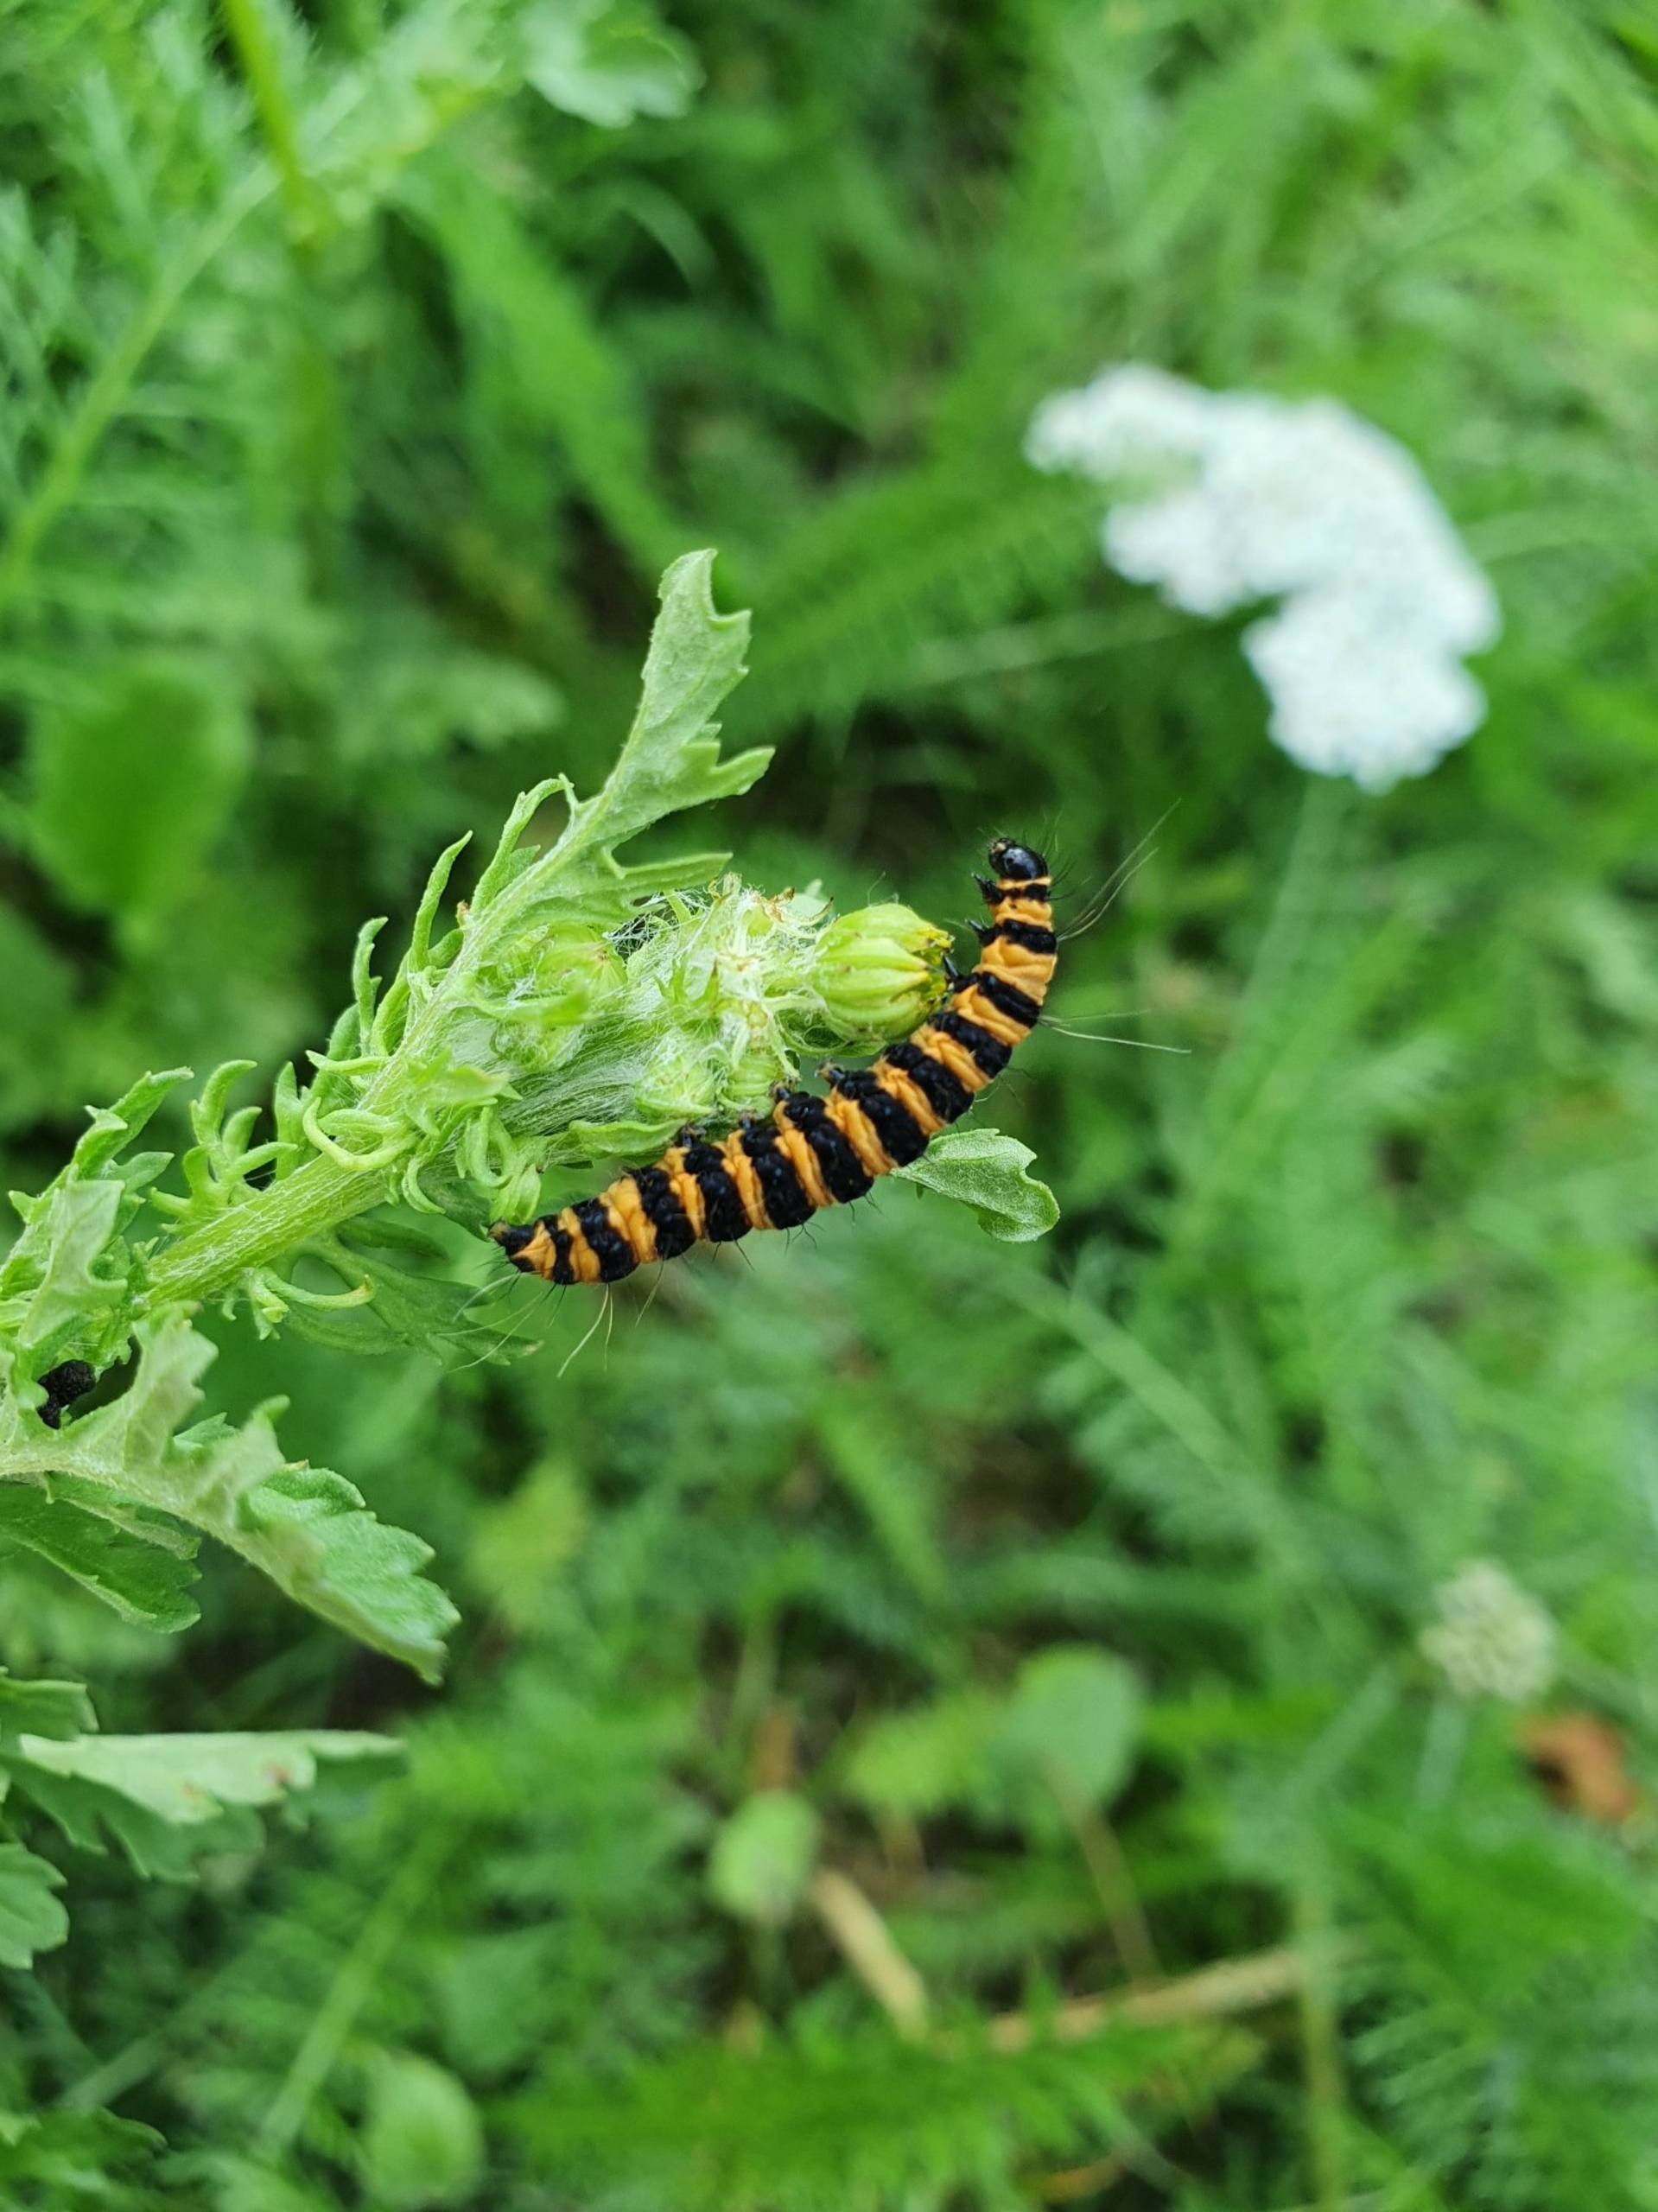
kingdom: Animalia
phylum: Arthropoda
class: Insecta
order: Lepidoptera
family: Erebidae
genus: Tyria
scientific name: Tyria jacobaeae
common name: Blodplet
